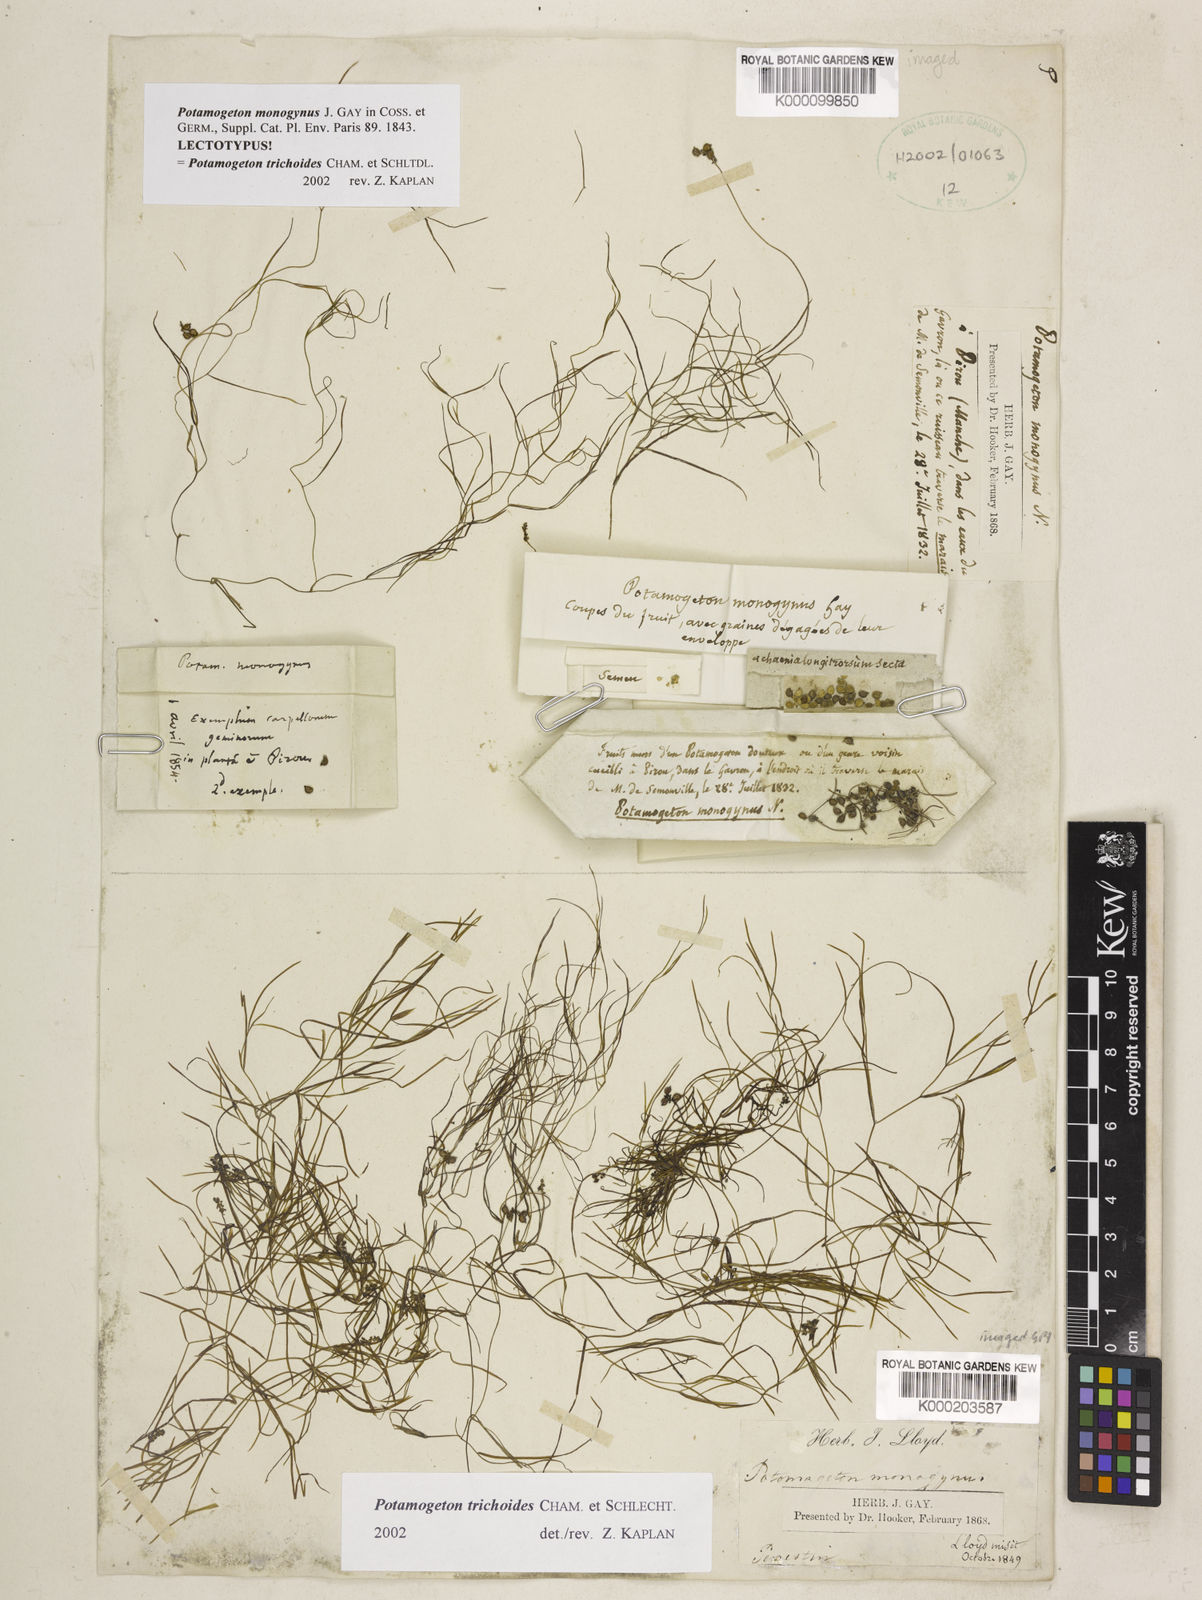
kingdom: Plantae
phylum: Tracheophyta
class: Liliopsida
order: Alismatales
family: Potamogetonaceae
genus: Potamogeton
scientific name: Potamogeton trichoides
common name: Hairlike pondweed
